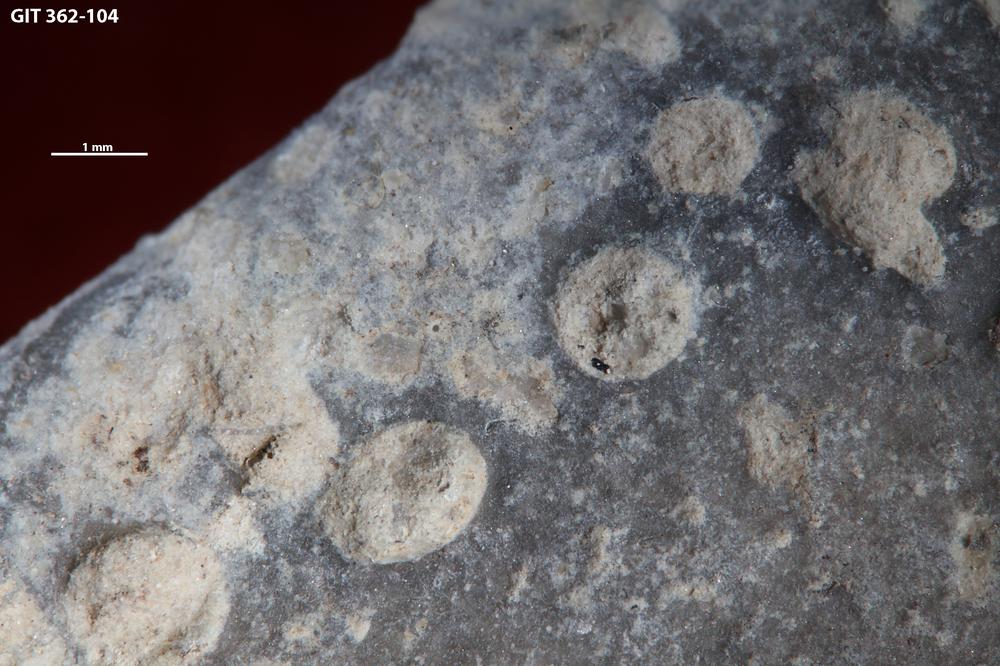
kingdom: Animalia
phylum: Sipuncula
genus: Trypanites
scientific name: Trypanites
